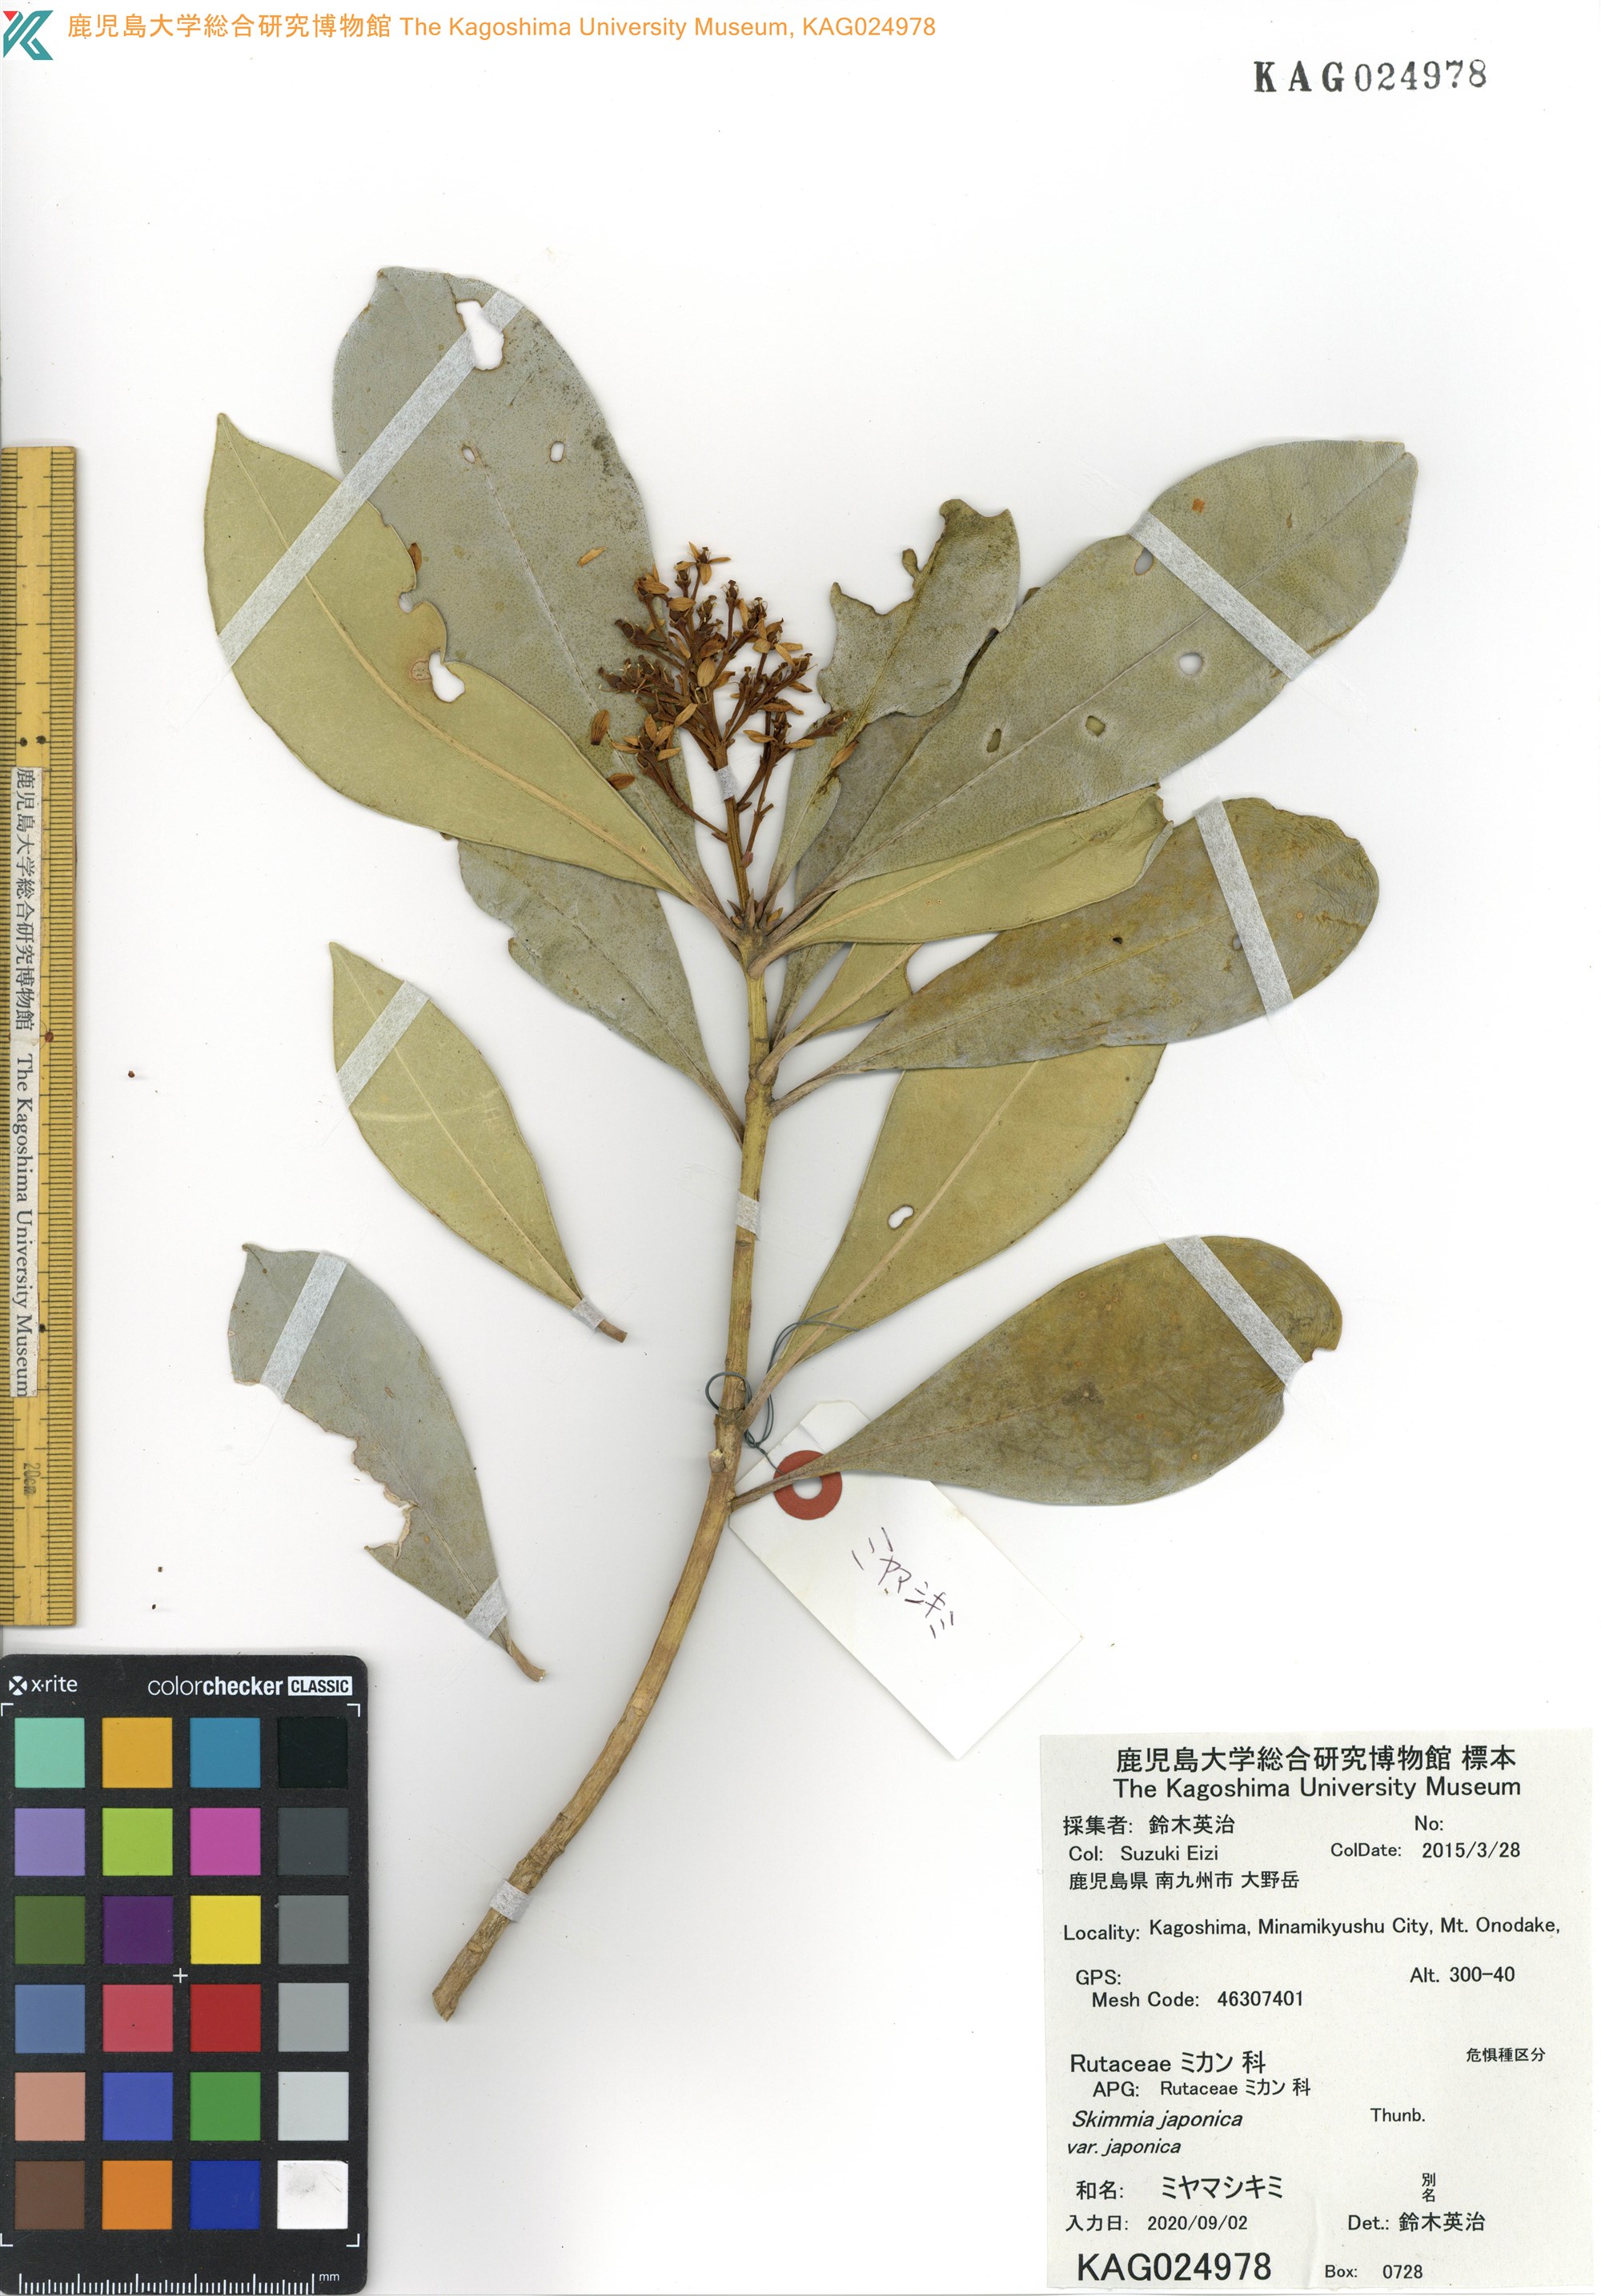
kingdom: Plantae
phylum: Tracheophyta
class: Magnoliopsida
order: Sapindales
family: Rutaceae
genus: Skimmia
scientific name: Skimmia japonica
